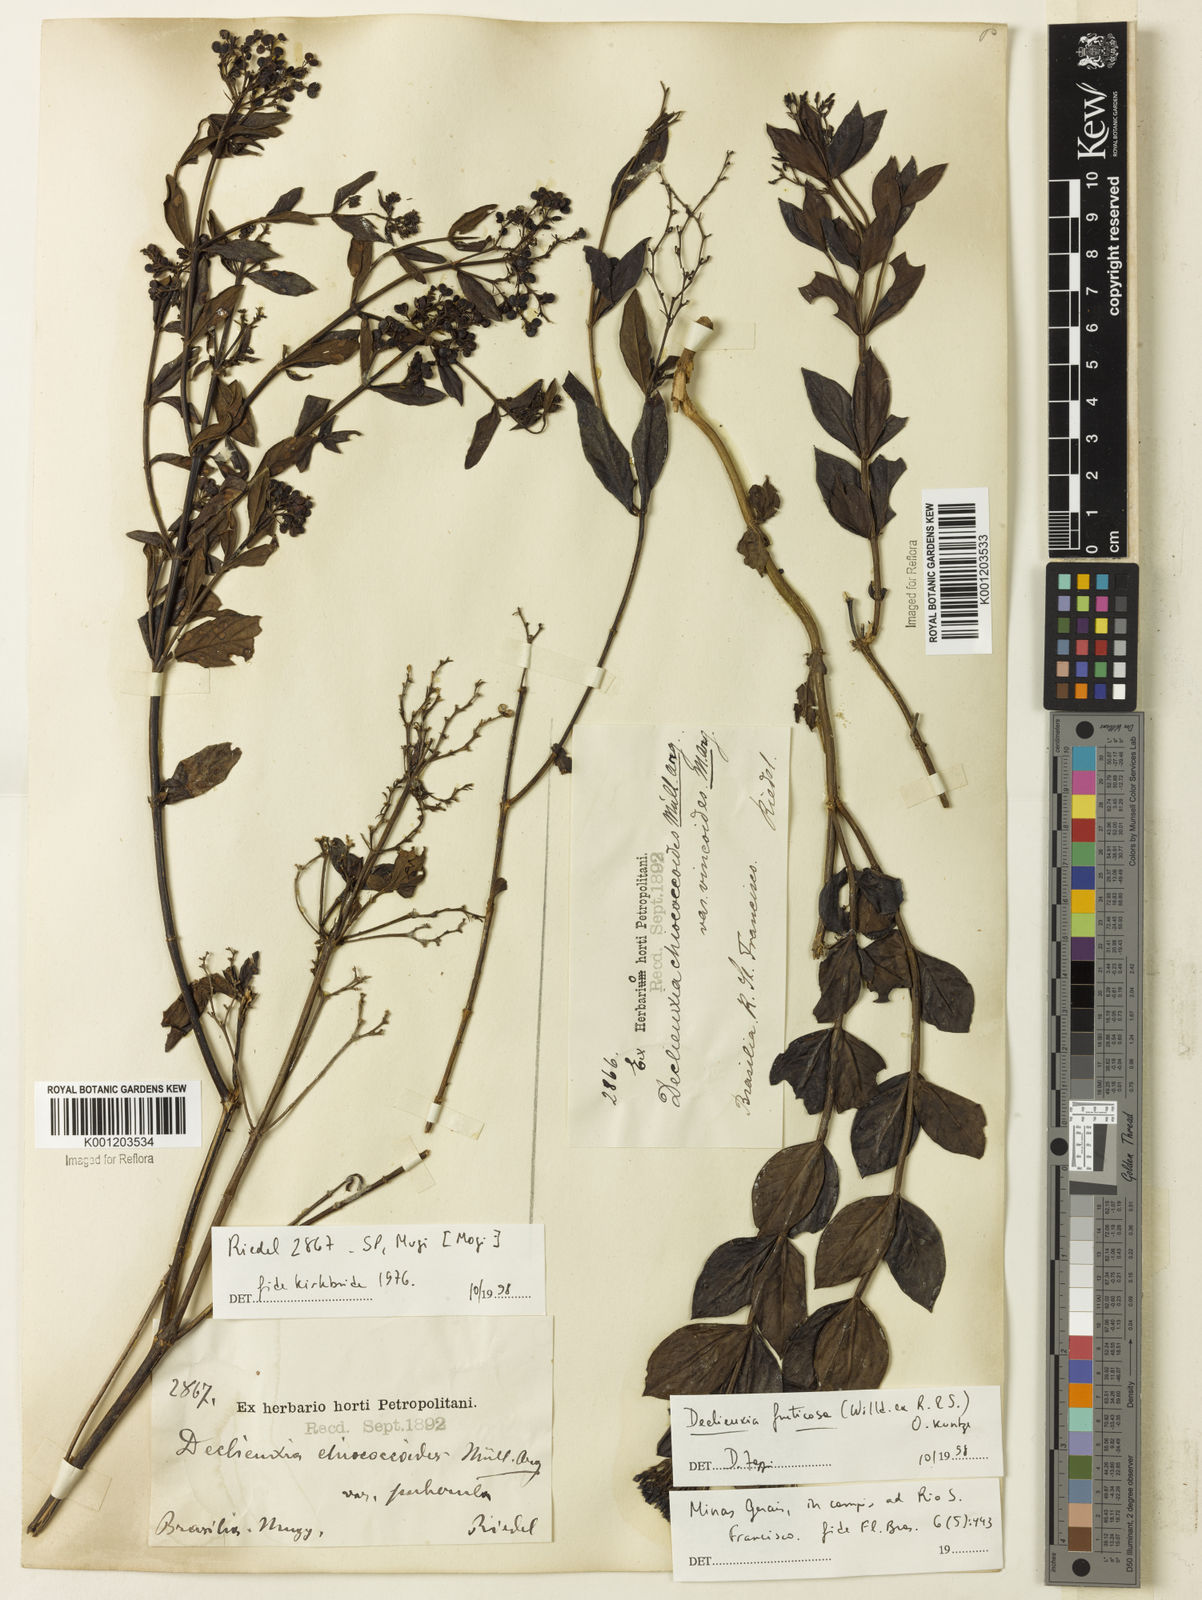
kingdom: Plantae
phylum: Tracheophyta
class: Magnoliopsida
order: Gentianales
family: Rubiaceae
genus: Declieuxia
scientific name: Declieuxia fruticosa
